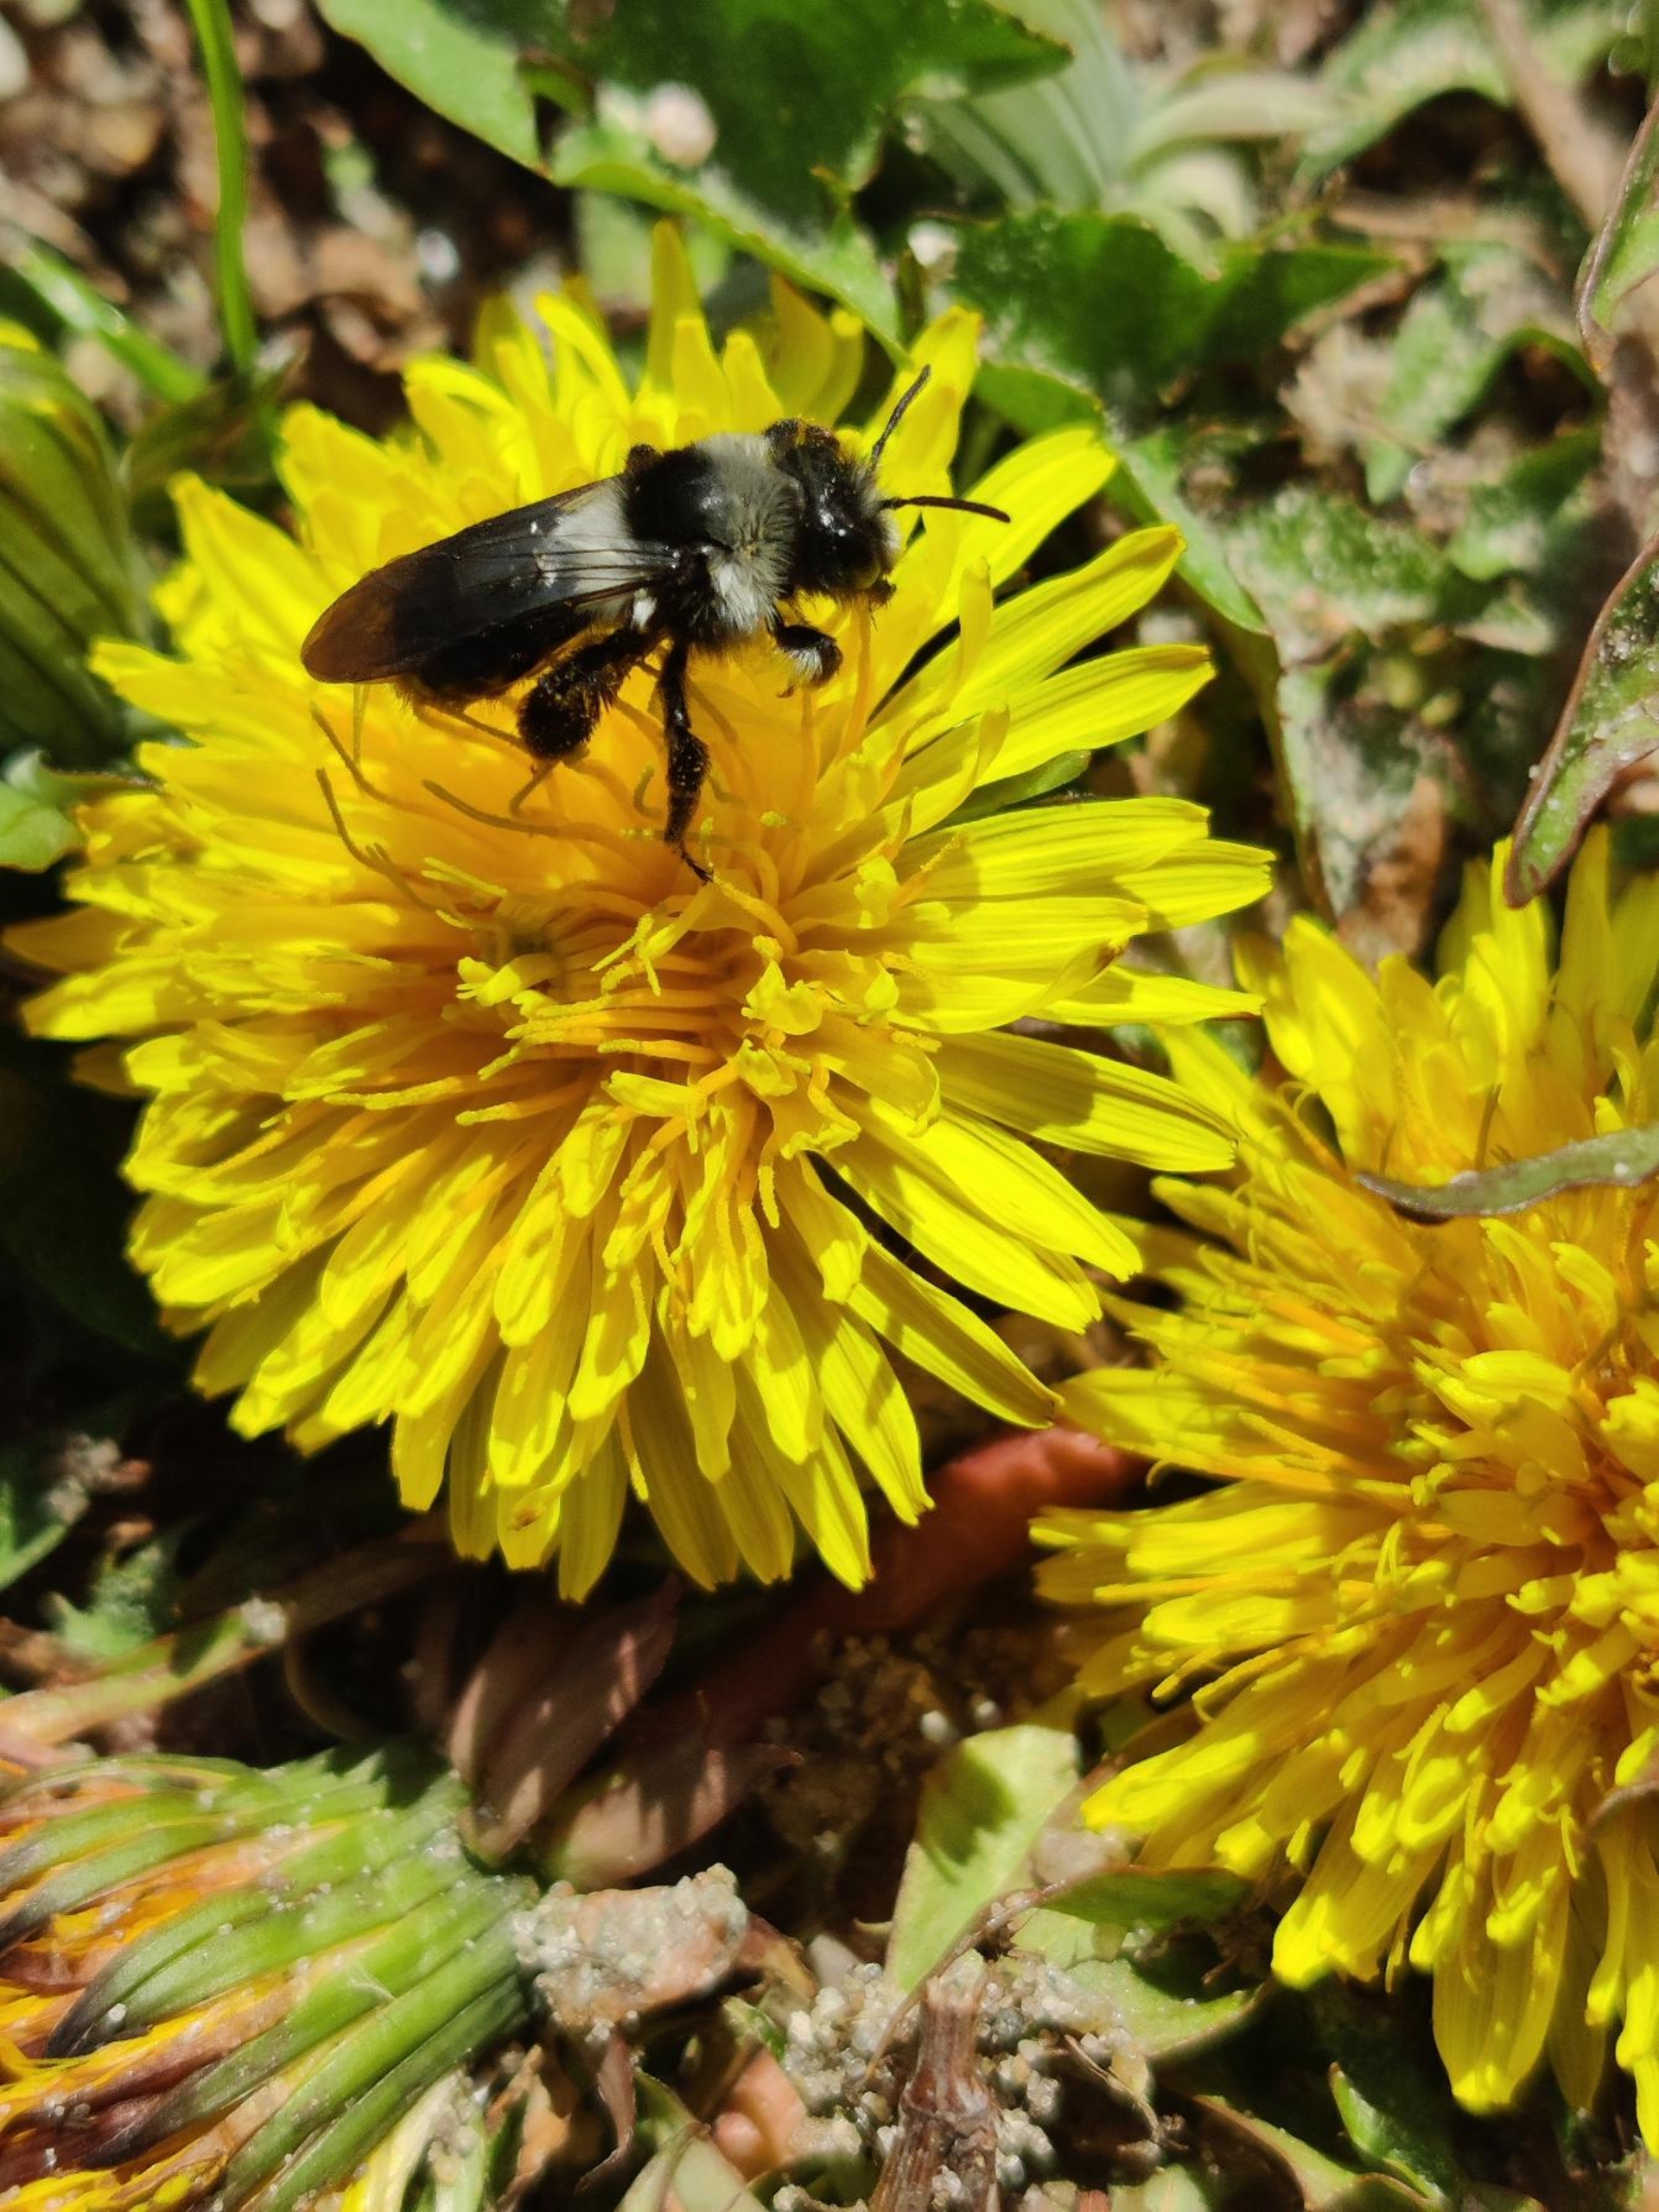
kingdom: Animalia
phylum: Arthropoda
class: Insecta
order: Hymenoptera
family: Andrenidae
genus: Andrena
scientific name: Andrena cineraria
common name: Sorthvid jordbi
